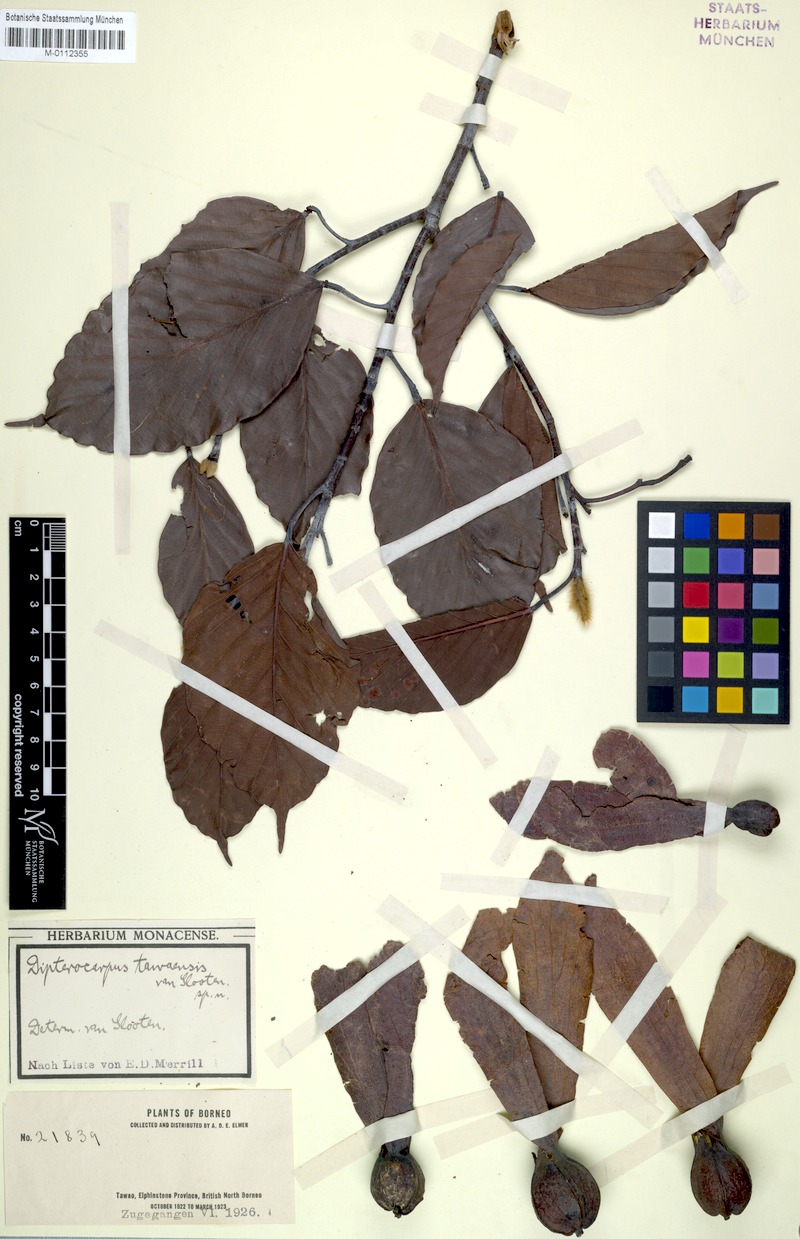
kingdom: Plantae
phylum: Tracheophyta
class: Magnoliopsida
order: Malvales
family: Dipterocarpaceae
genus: Dipterocarpus
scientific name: Dipterocarpus acutangulus
